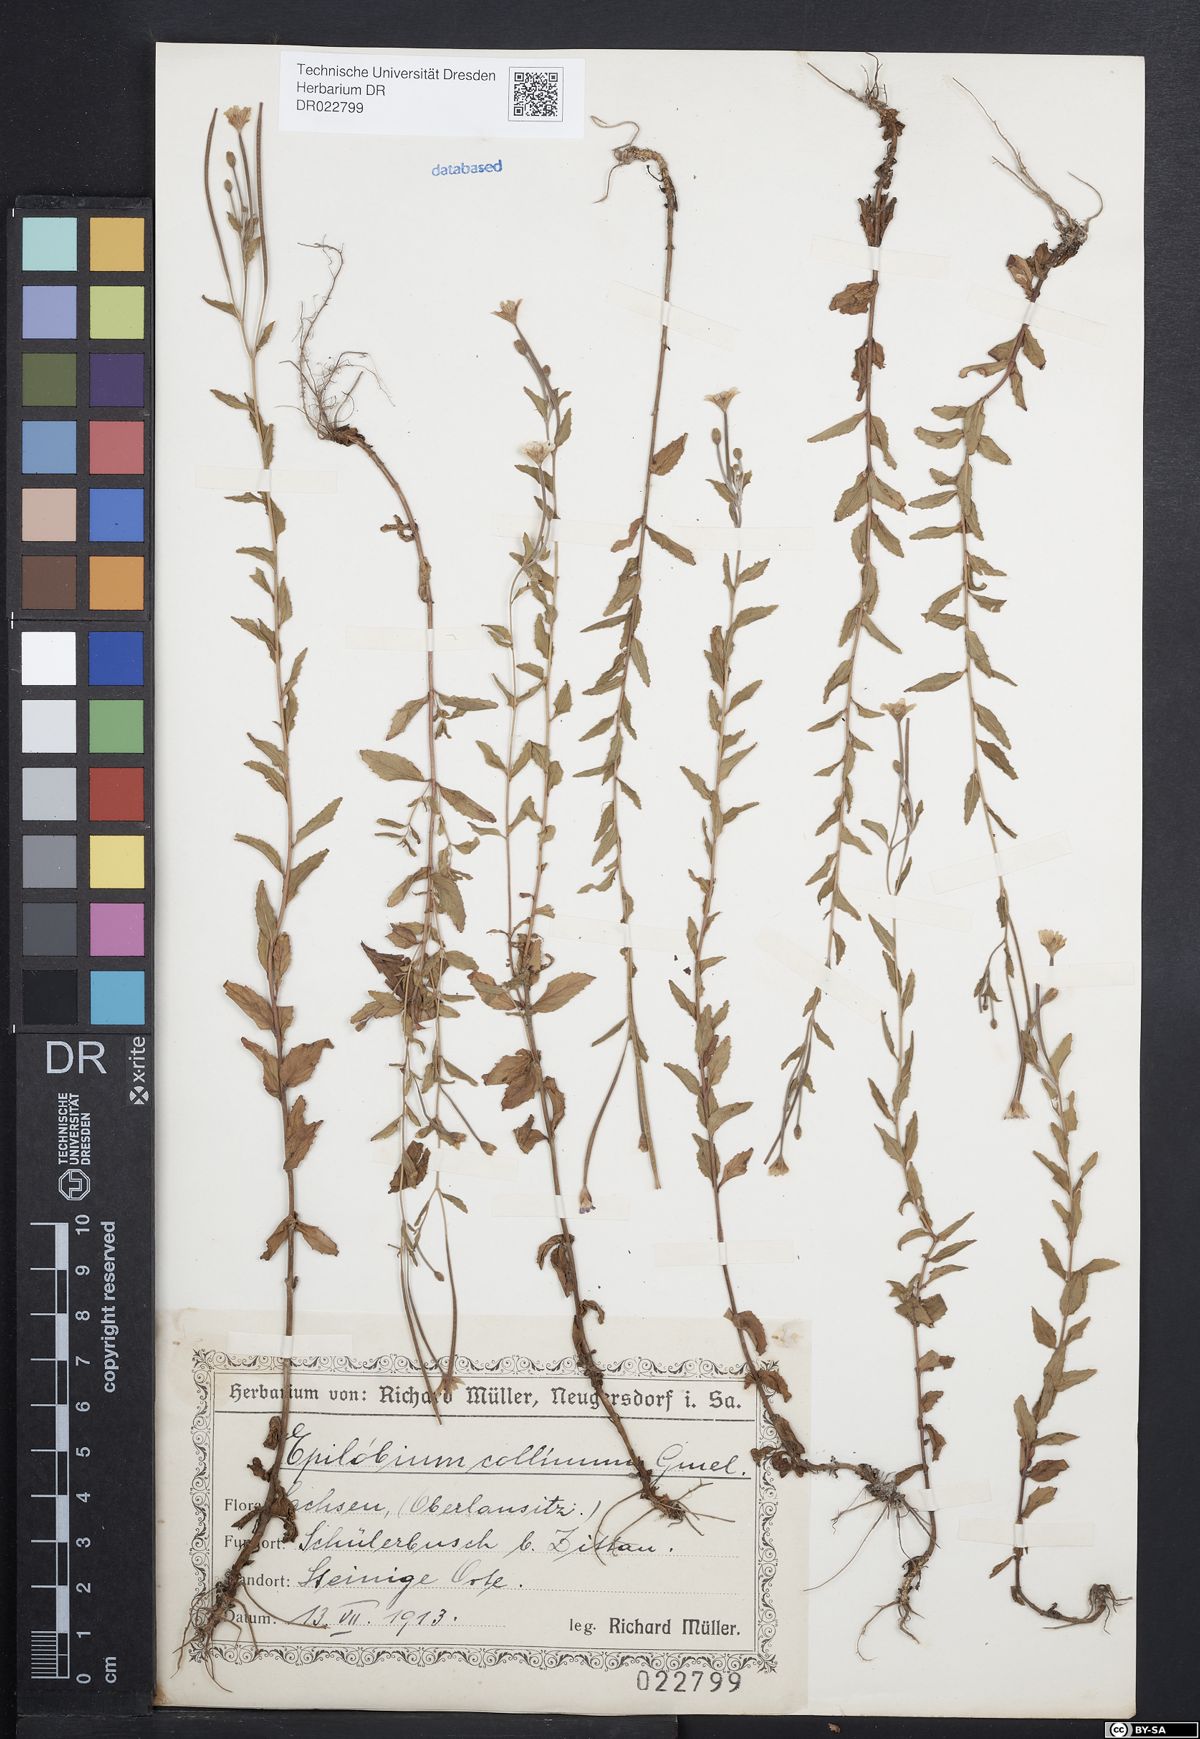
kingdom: Plantae
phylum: Tracheophyta
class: Magnoliopsida
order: Myrtales
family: Onagraceae
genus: Epilobium
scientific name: Epilobium collinum
